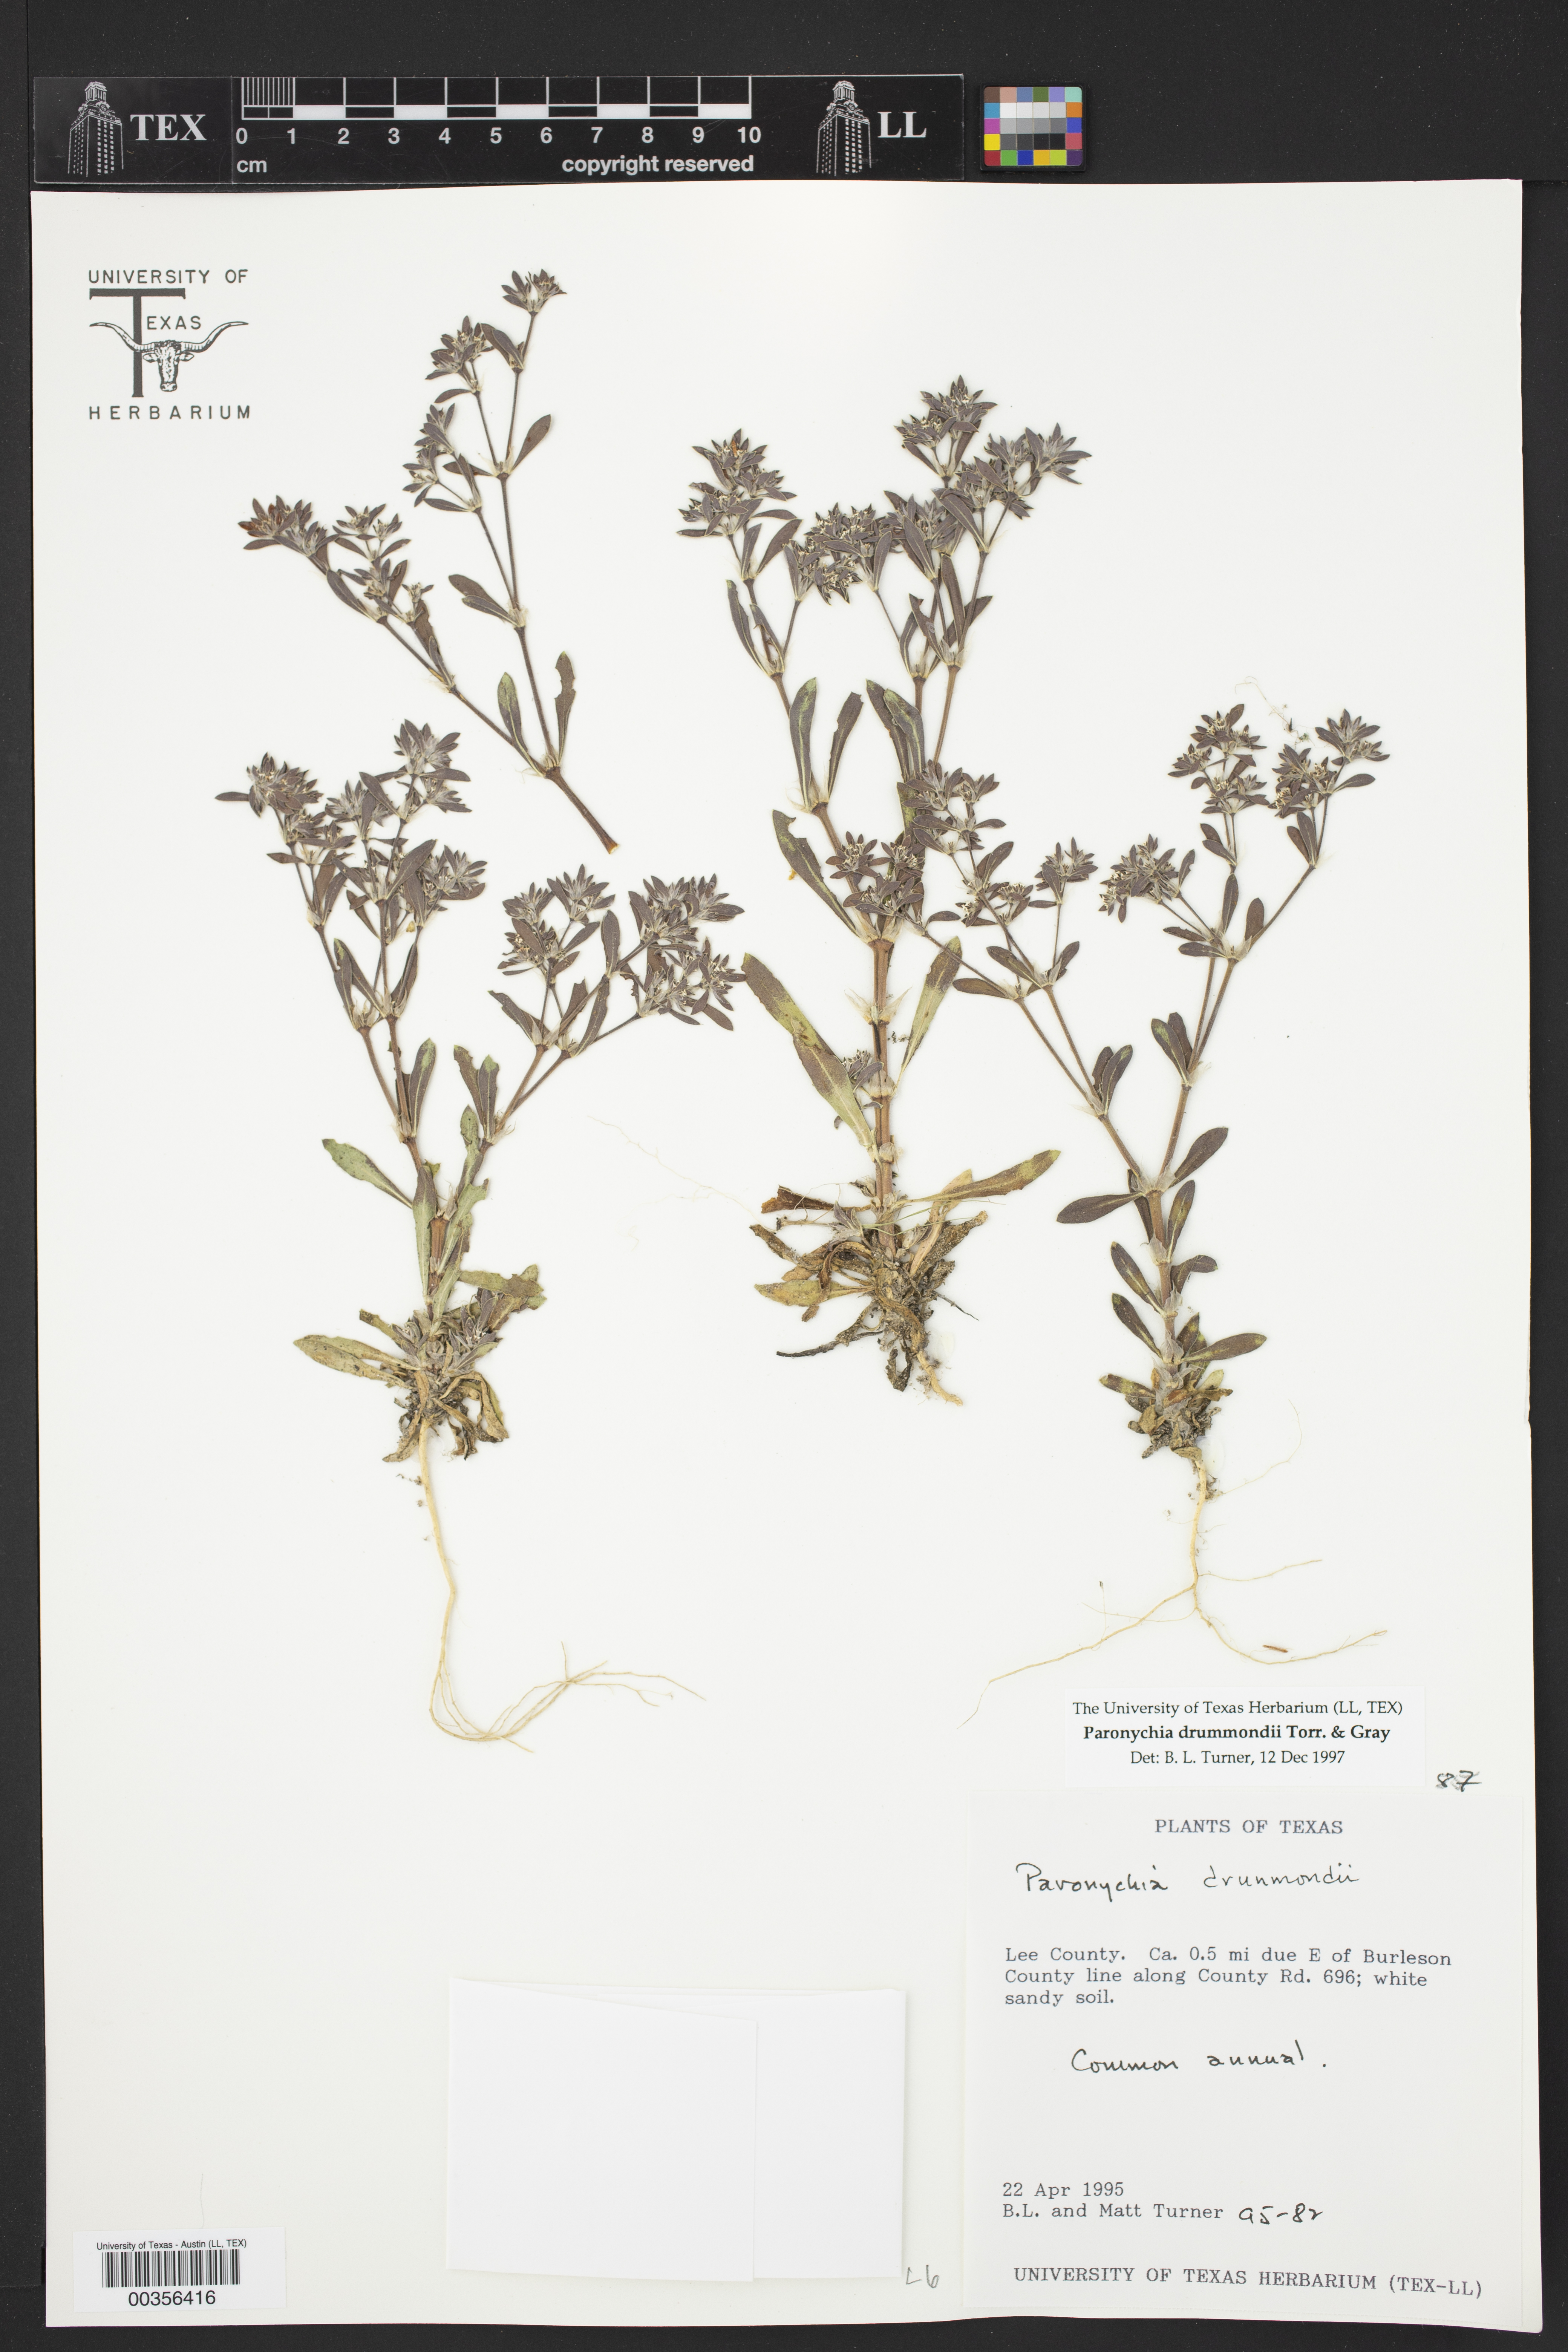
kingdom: Plantae
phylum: Tracheophyta
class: Magnoliopsida
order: Caryophyllales
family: Caryophyllaceae
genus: Paronychia
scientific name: Paronychia drummondii
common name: Drummond's nailwort
